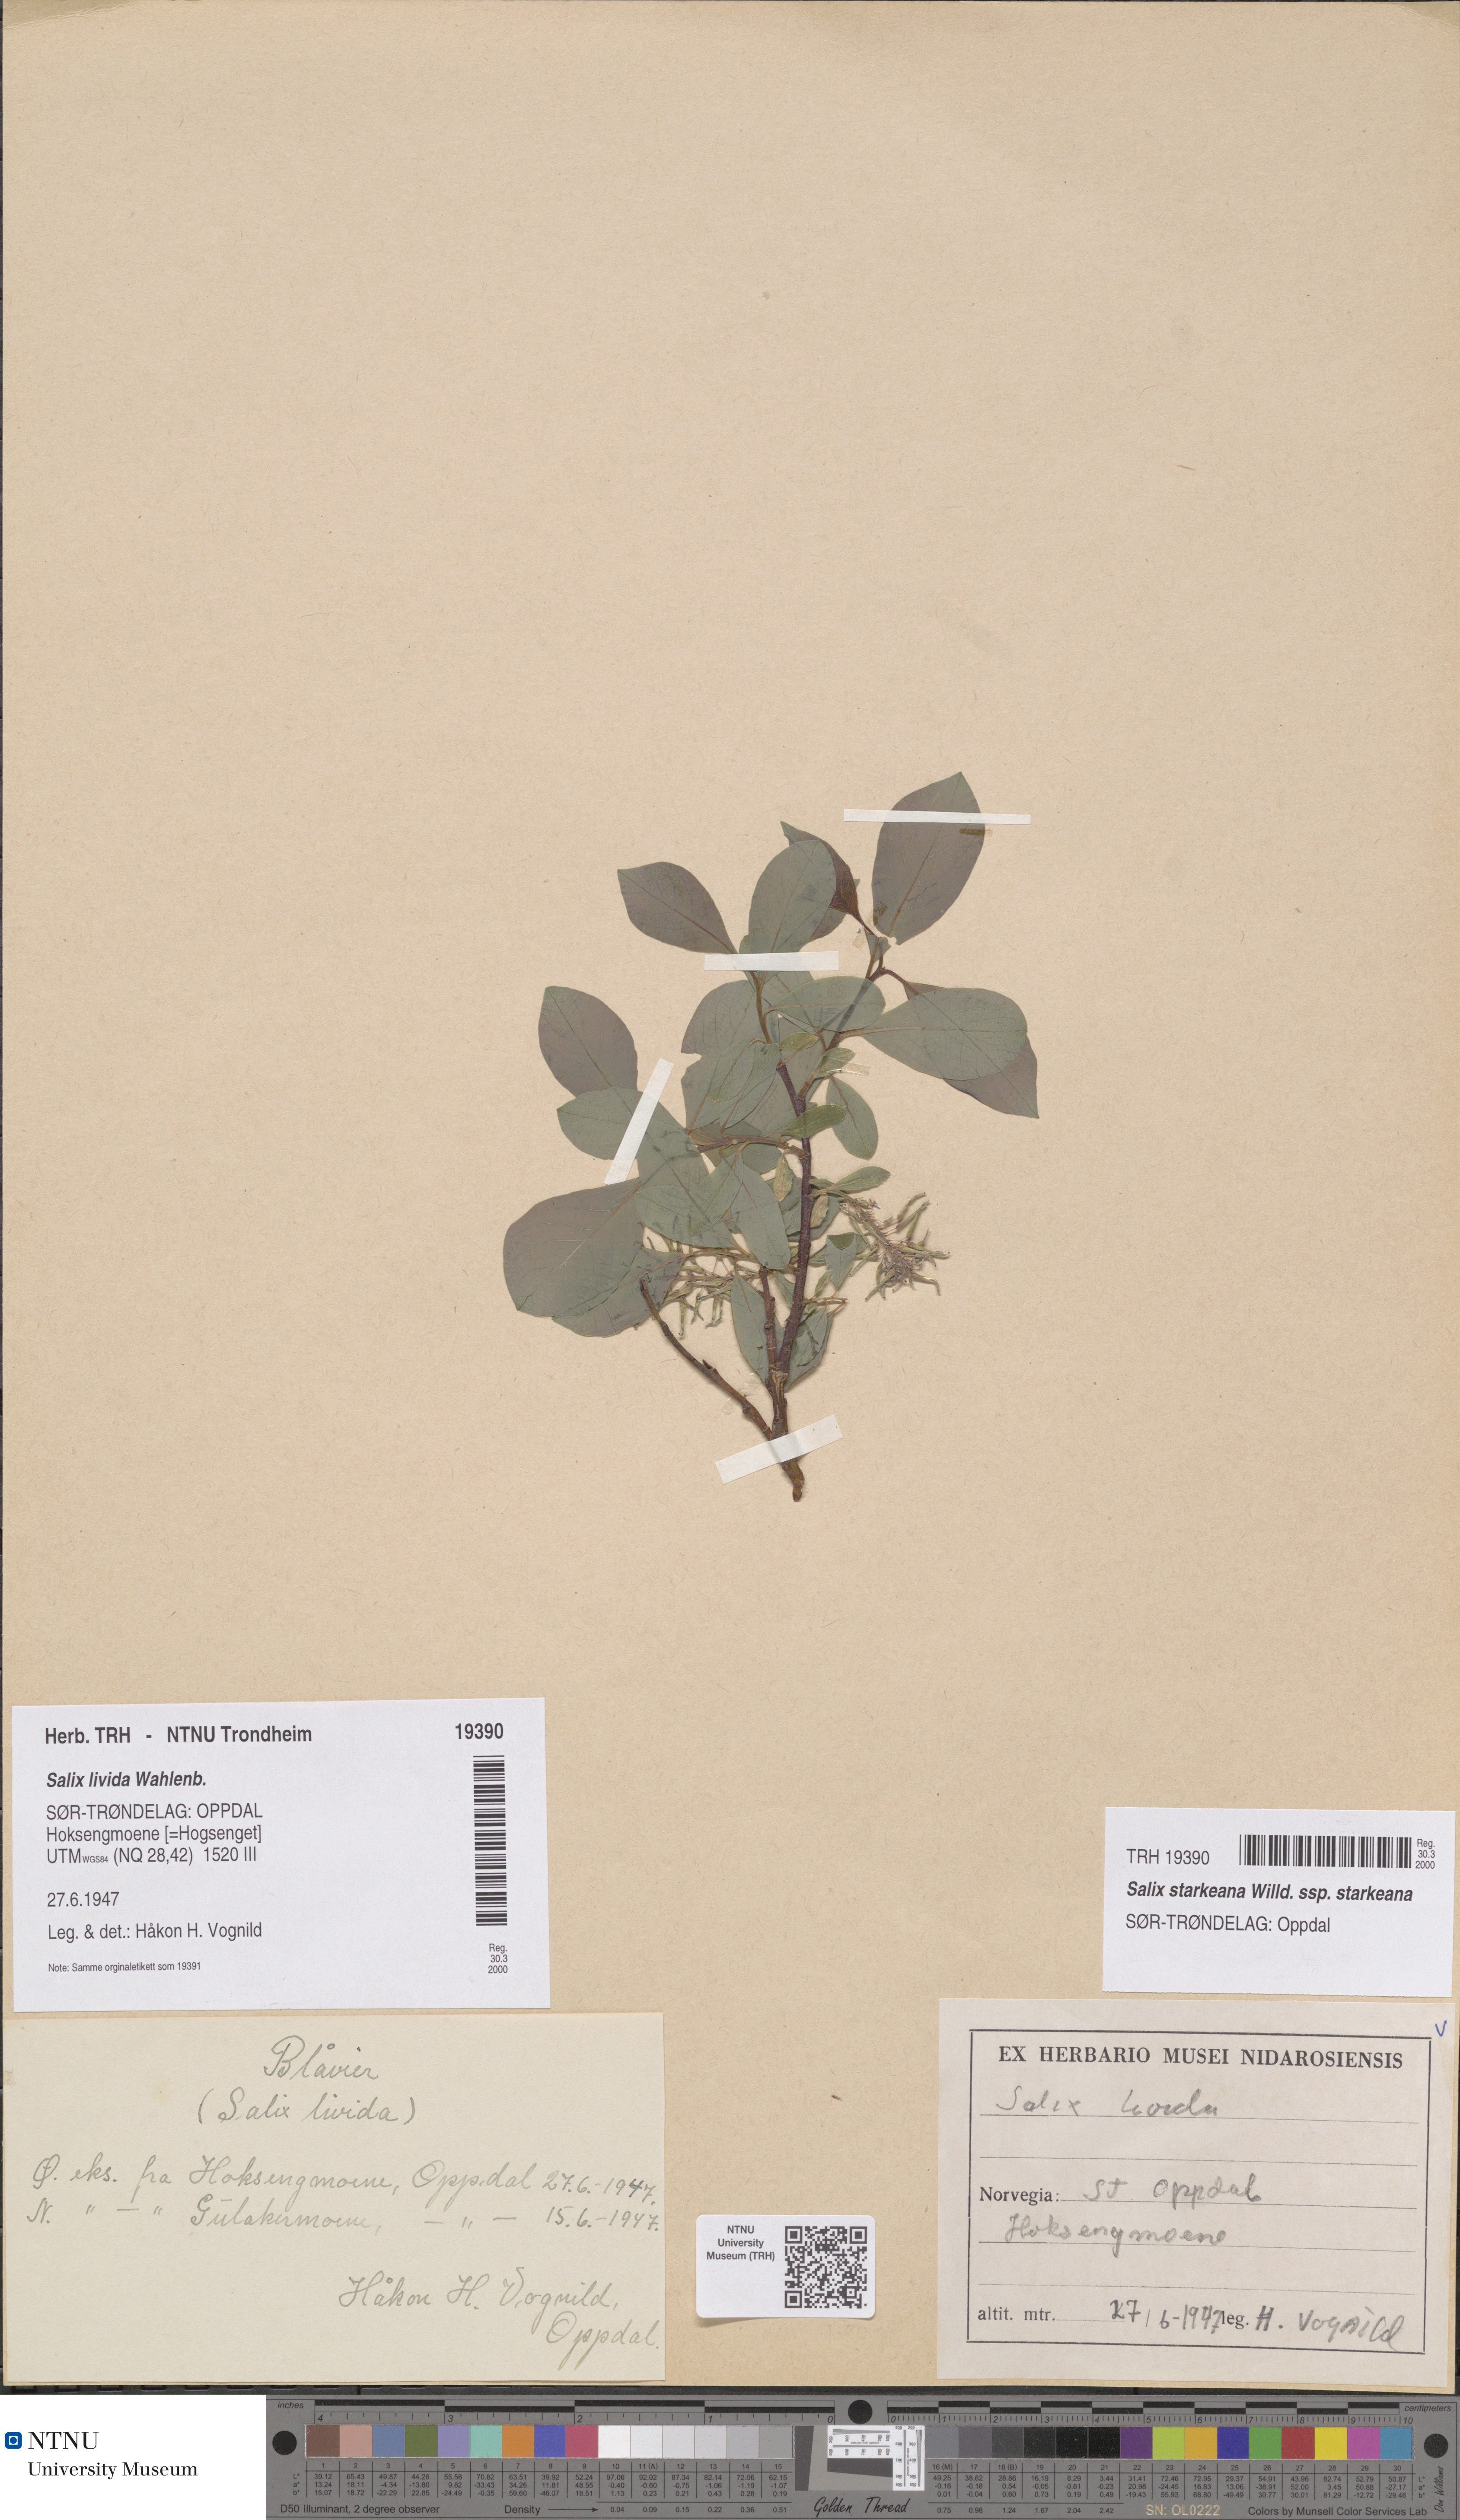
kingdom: Plantae
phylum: Tracheophyta
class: Magnoliopsida
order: Malpighiales
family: Salicaceae
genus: Salix
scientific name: Salix starkeana
